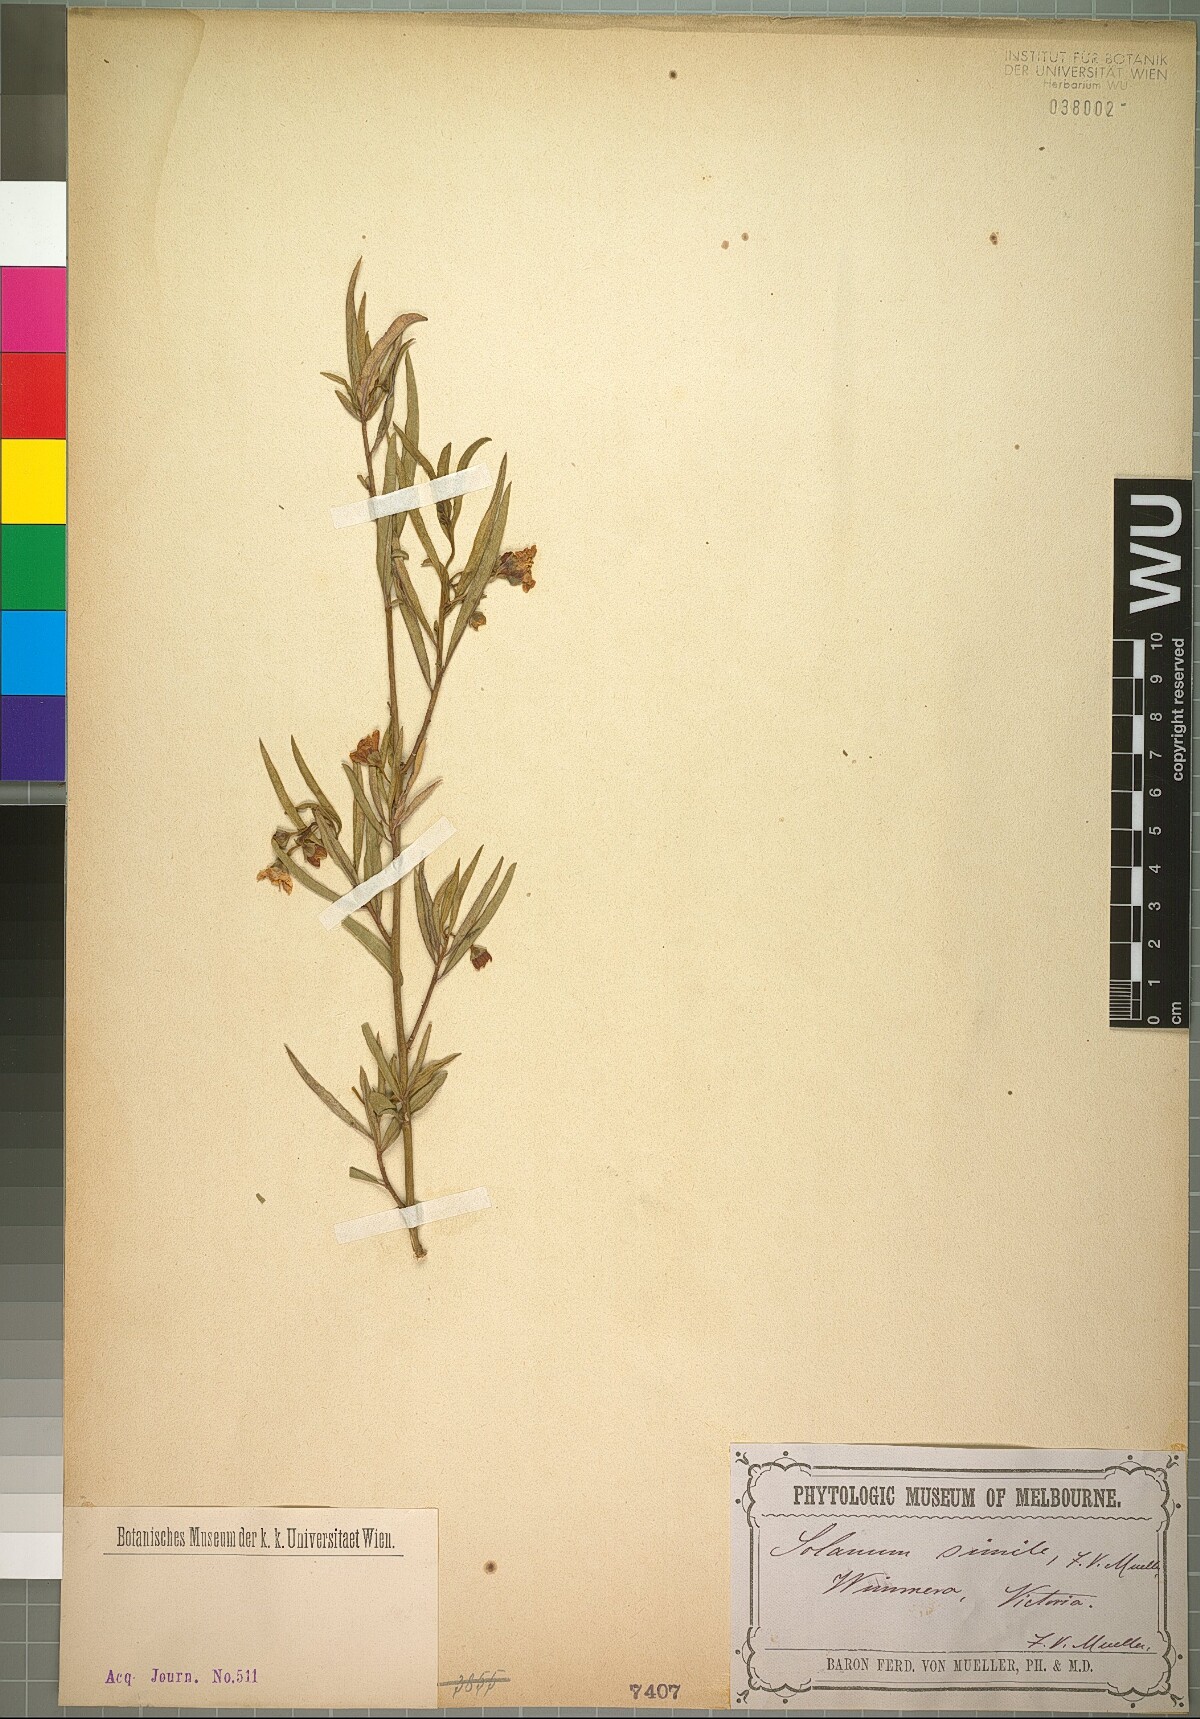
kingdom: Plantae
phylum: Tracheophyta
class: Magnoliopsida
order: Solanales
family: Solanaceae
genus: Solanum
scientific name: Solanum simile
